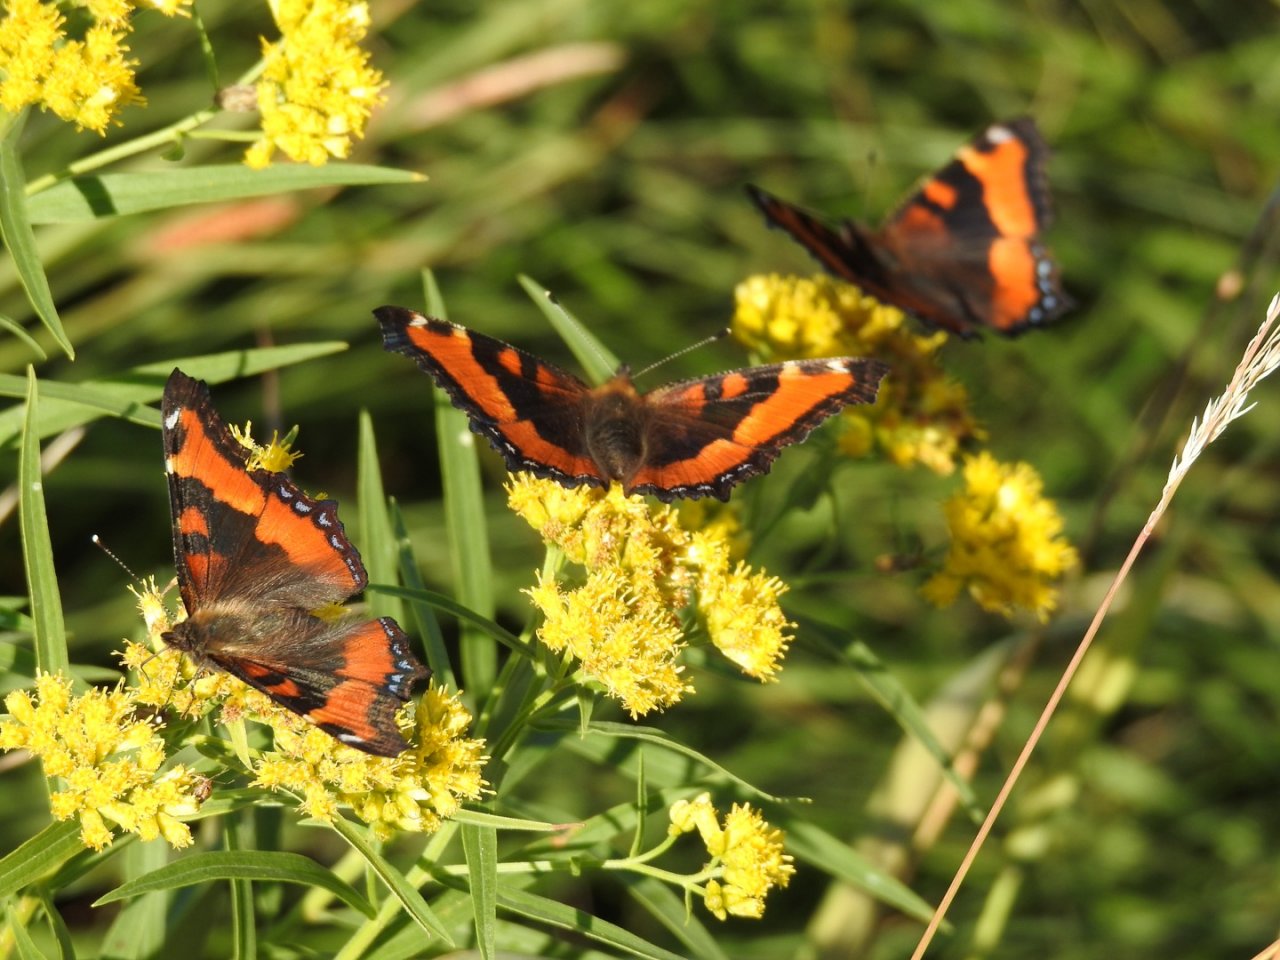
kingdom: Animalia
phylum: Arthropoda
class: Insecta
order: Lepidoptera
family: Nymphalidae
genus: Aglais
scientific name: Aglais milberti
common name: Milbert's Tortoiseshell
